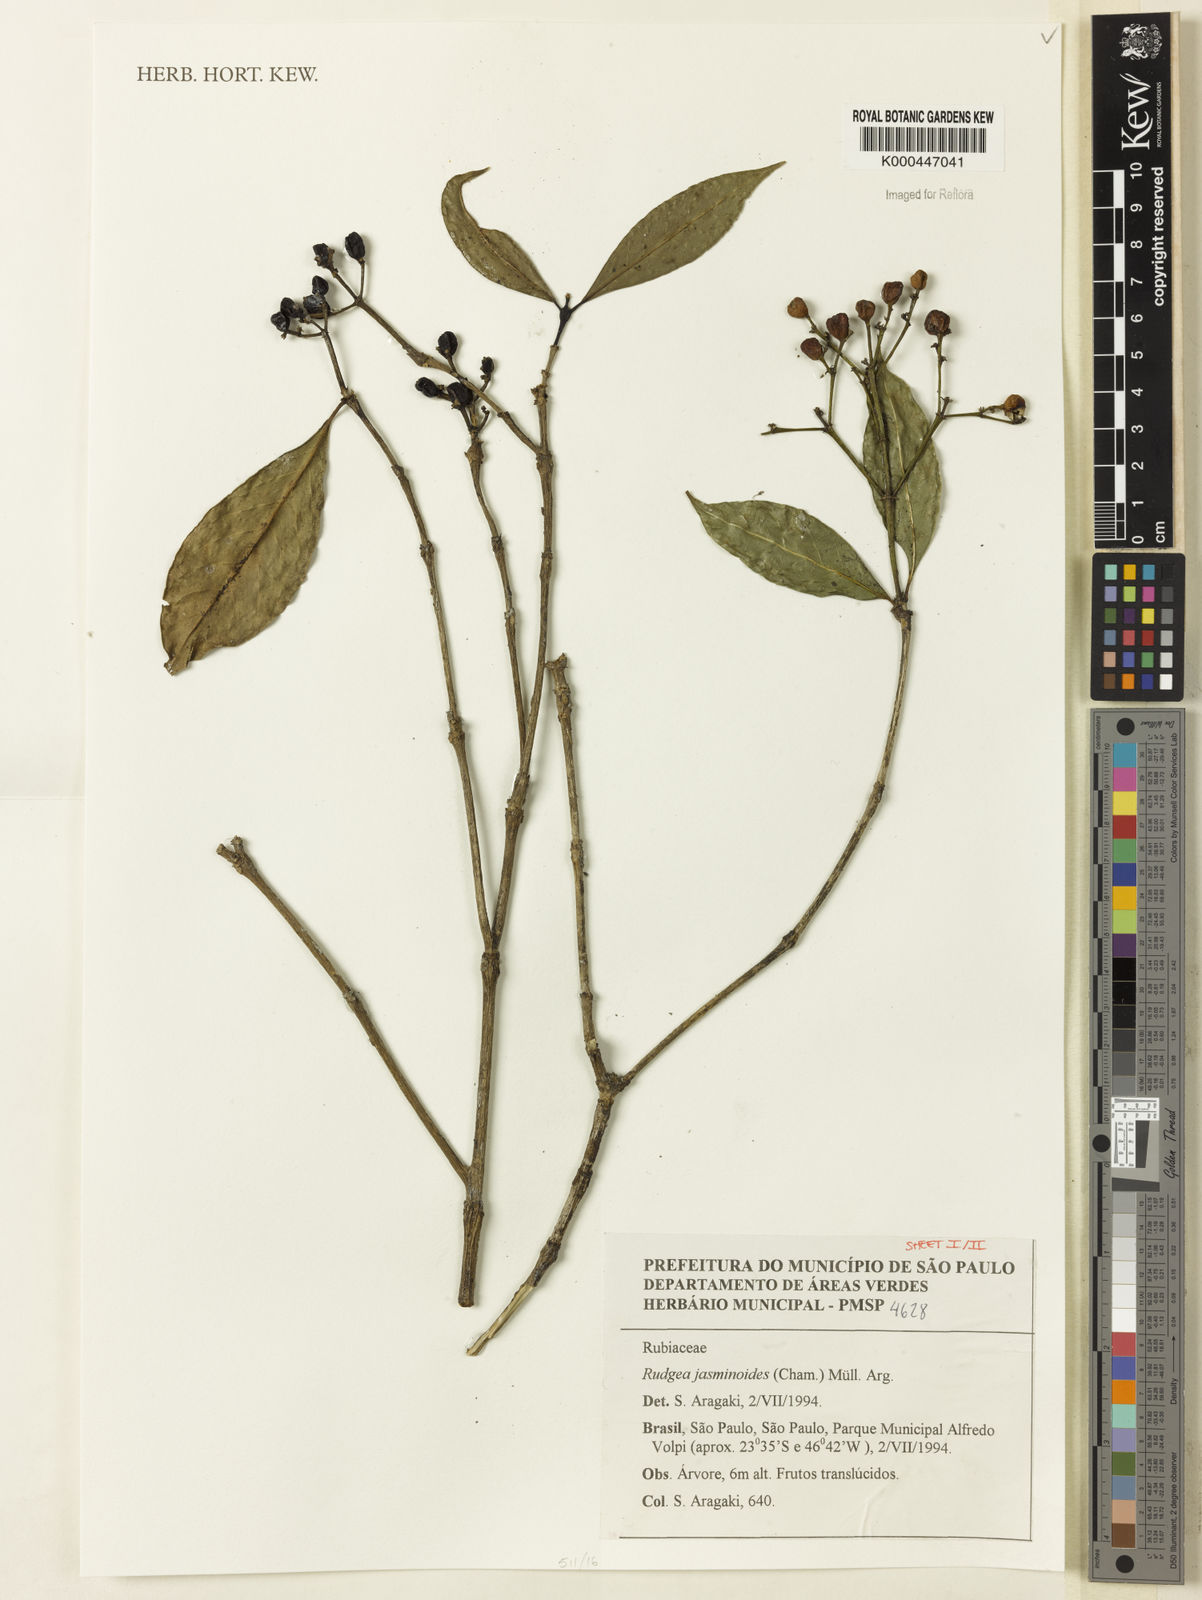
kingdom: Plantae
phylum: Tracheophyta
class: Magnoliopsida
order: Gentianales
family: Rubiaceae
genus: Rudgea
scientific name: Rudgea jasminoides
